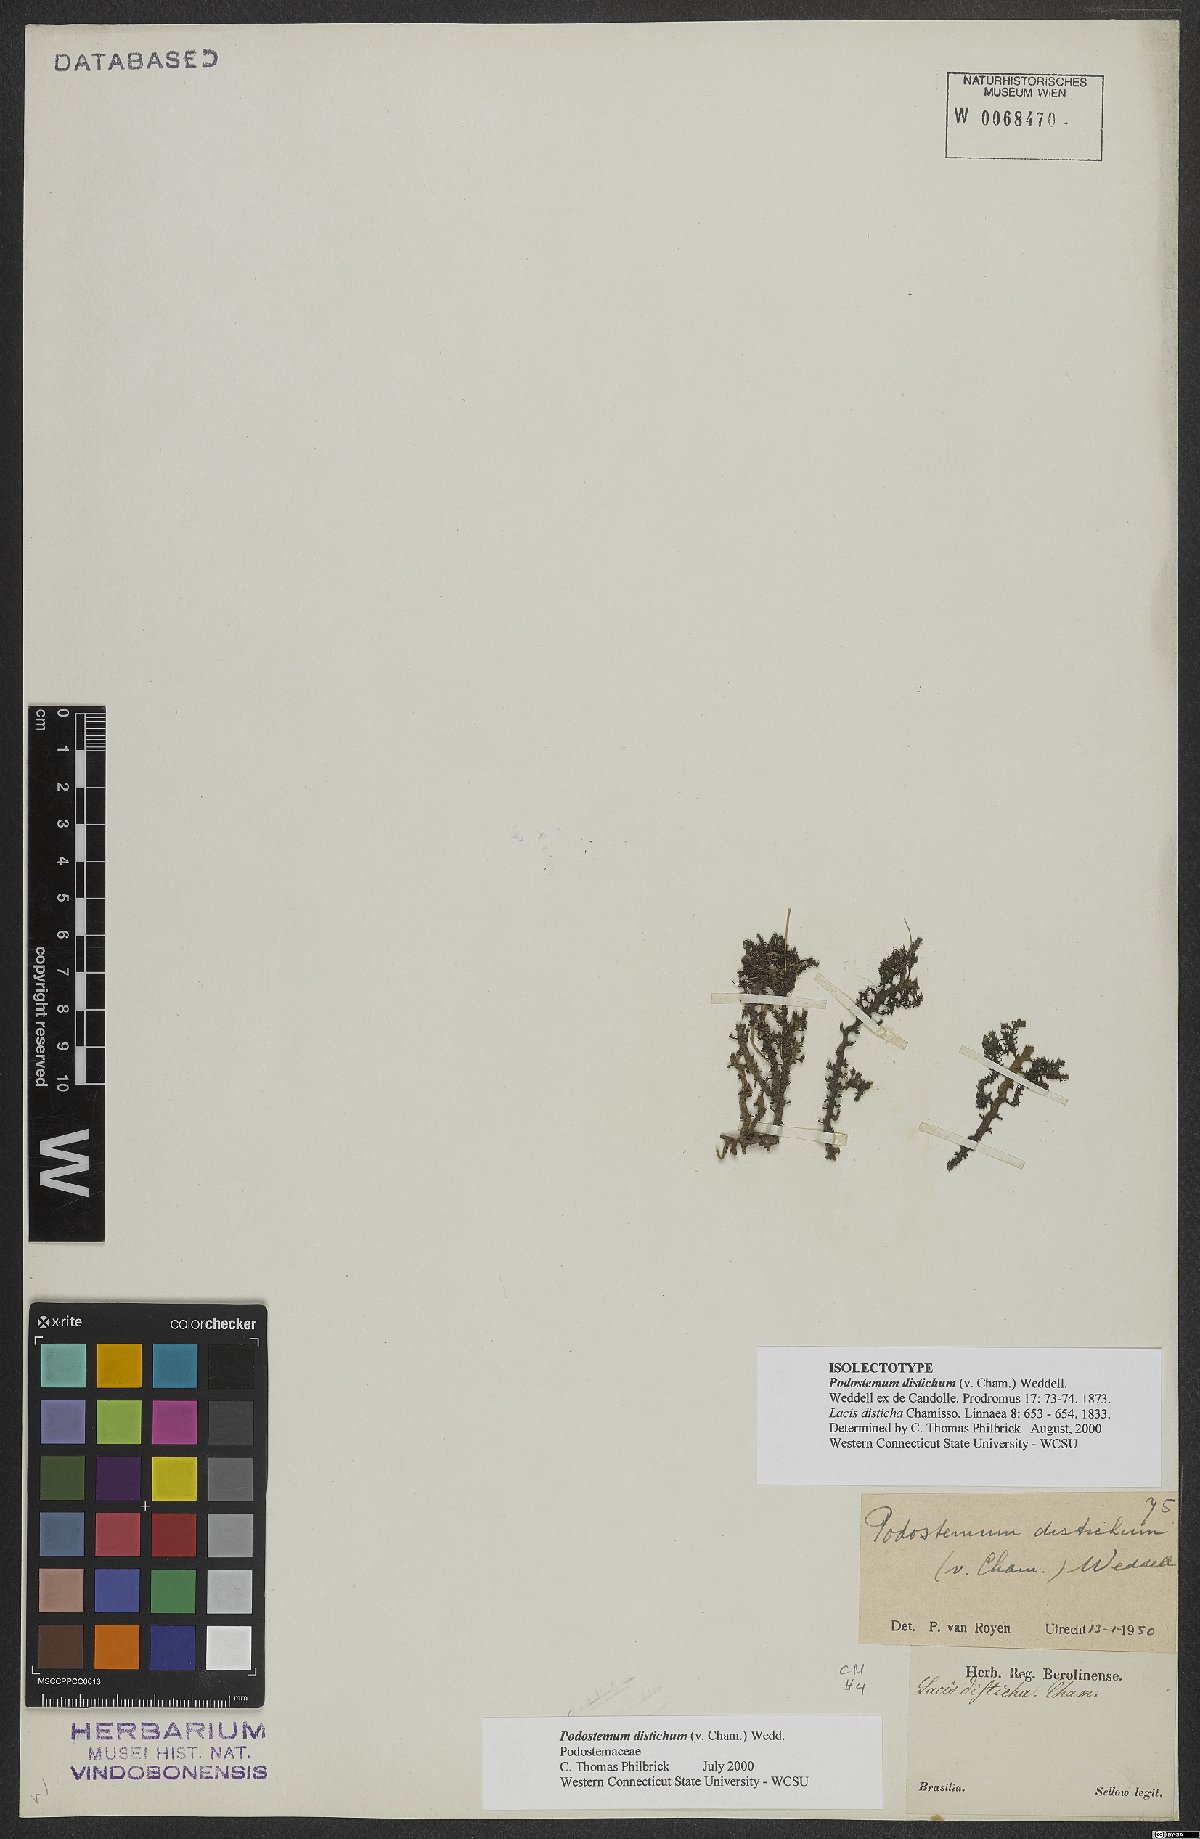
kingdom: Plantae
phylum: Tracheophyta
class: Magnoliopsida
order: Malpighiales
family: Podostemaceae
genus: Podostemum
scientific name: Podostemum distichum
